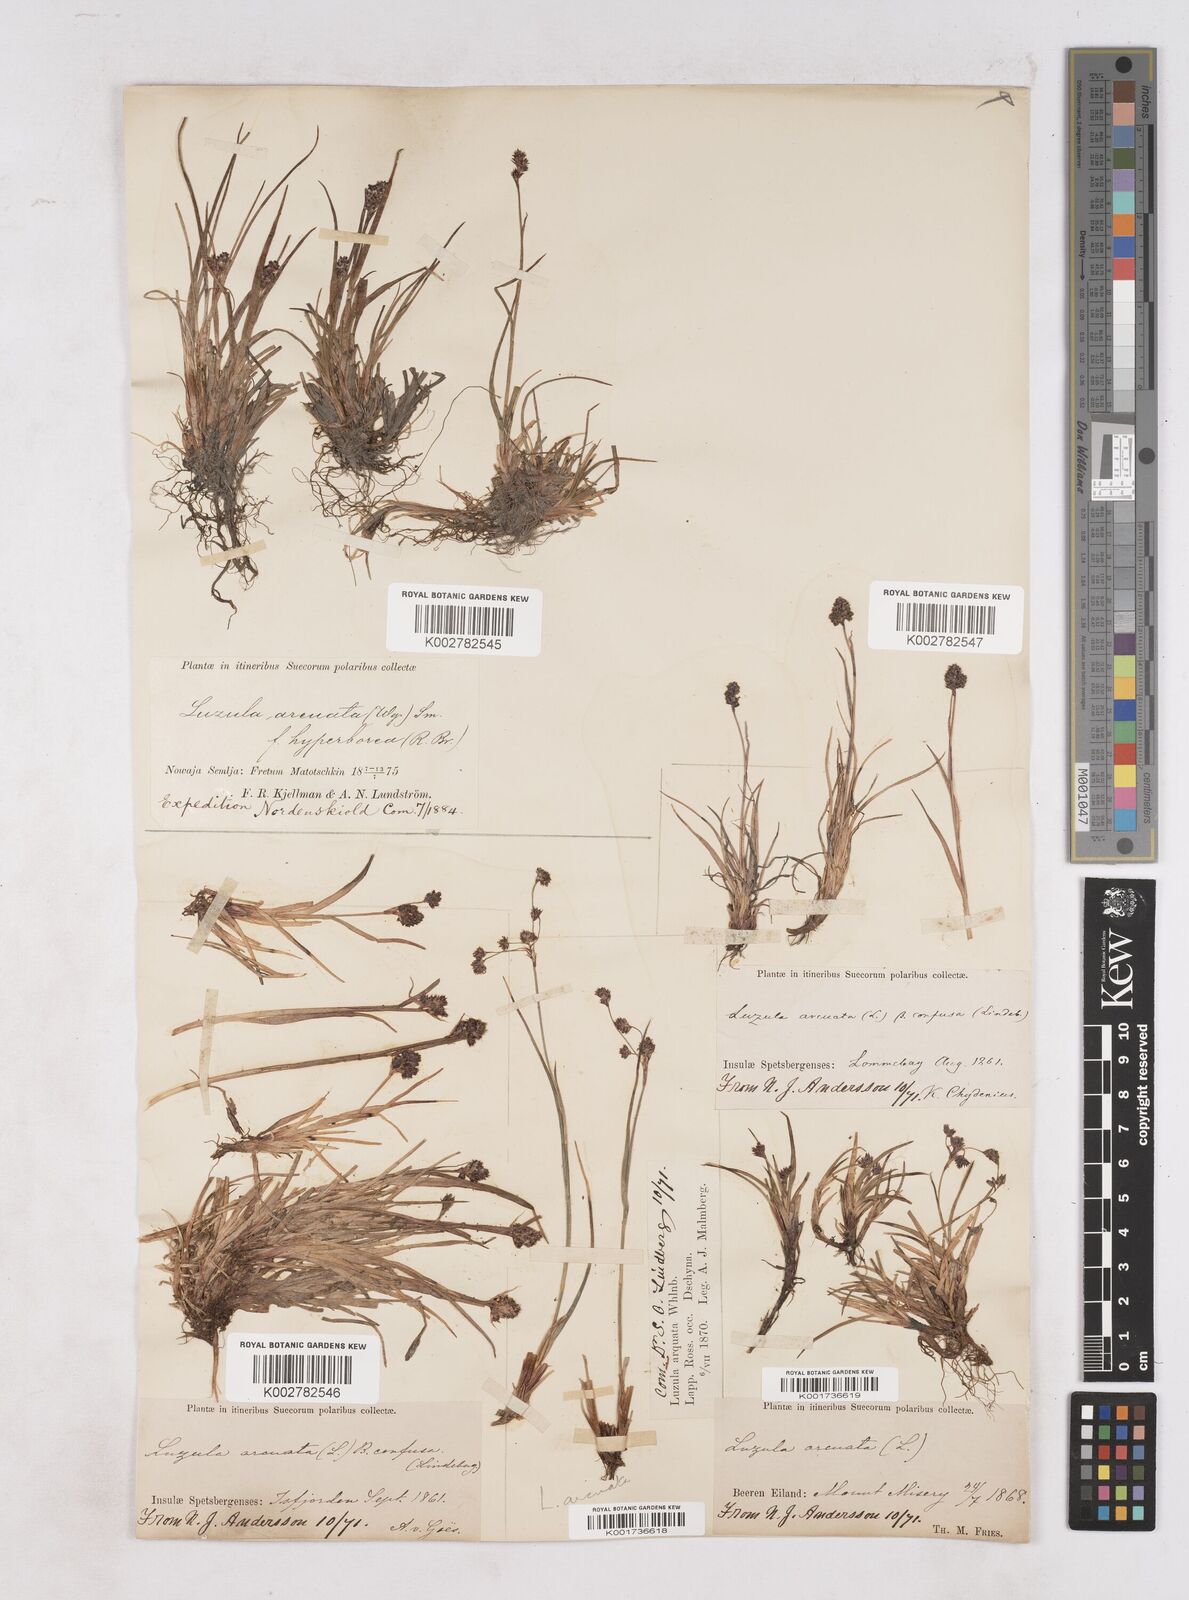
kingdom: Plantae
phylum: Tracheophyta
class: Liliopsida
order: Poales
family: Juncaceae
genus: Luzula
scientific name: Luzula confusa
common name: Northern wood rush
